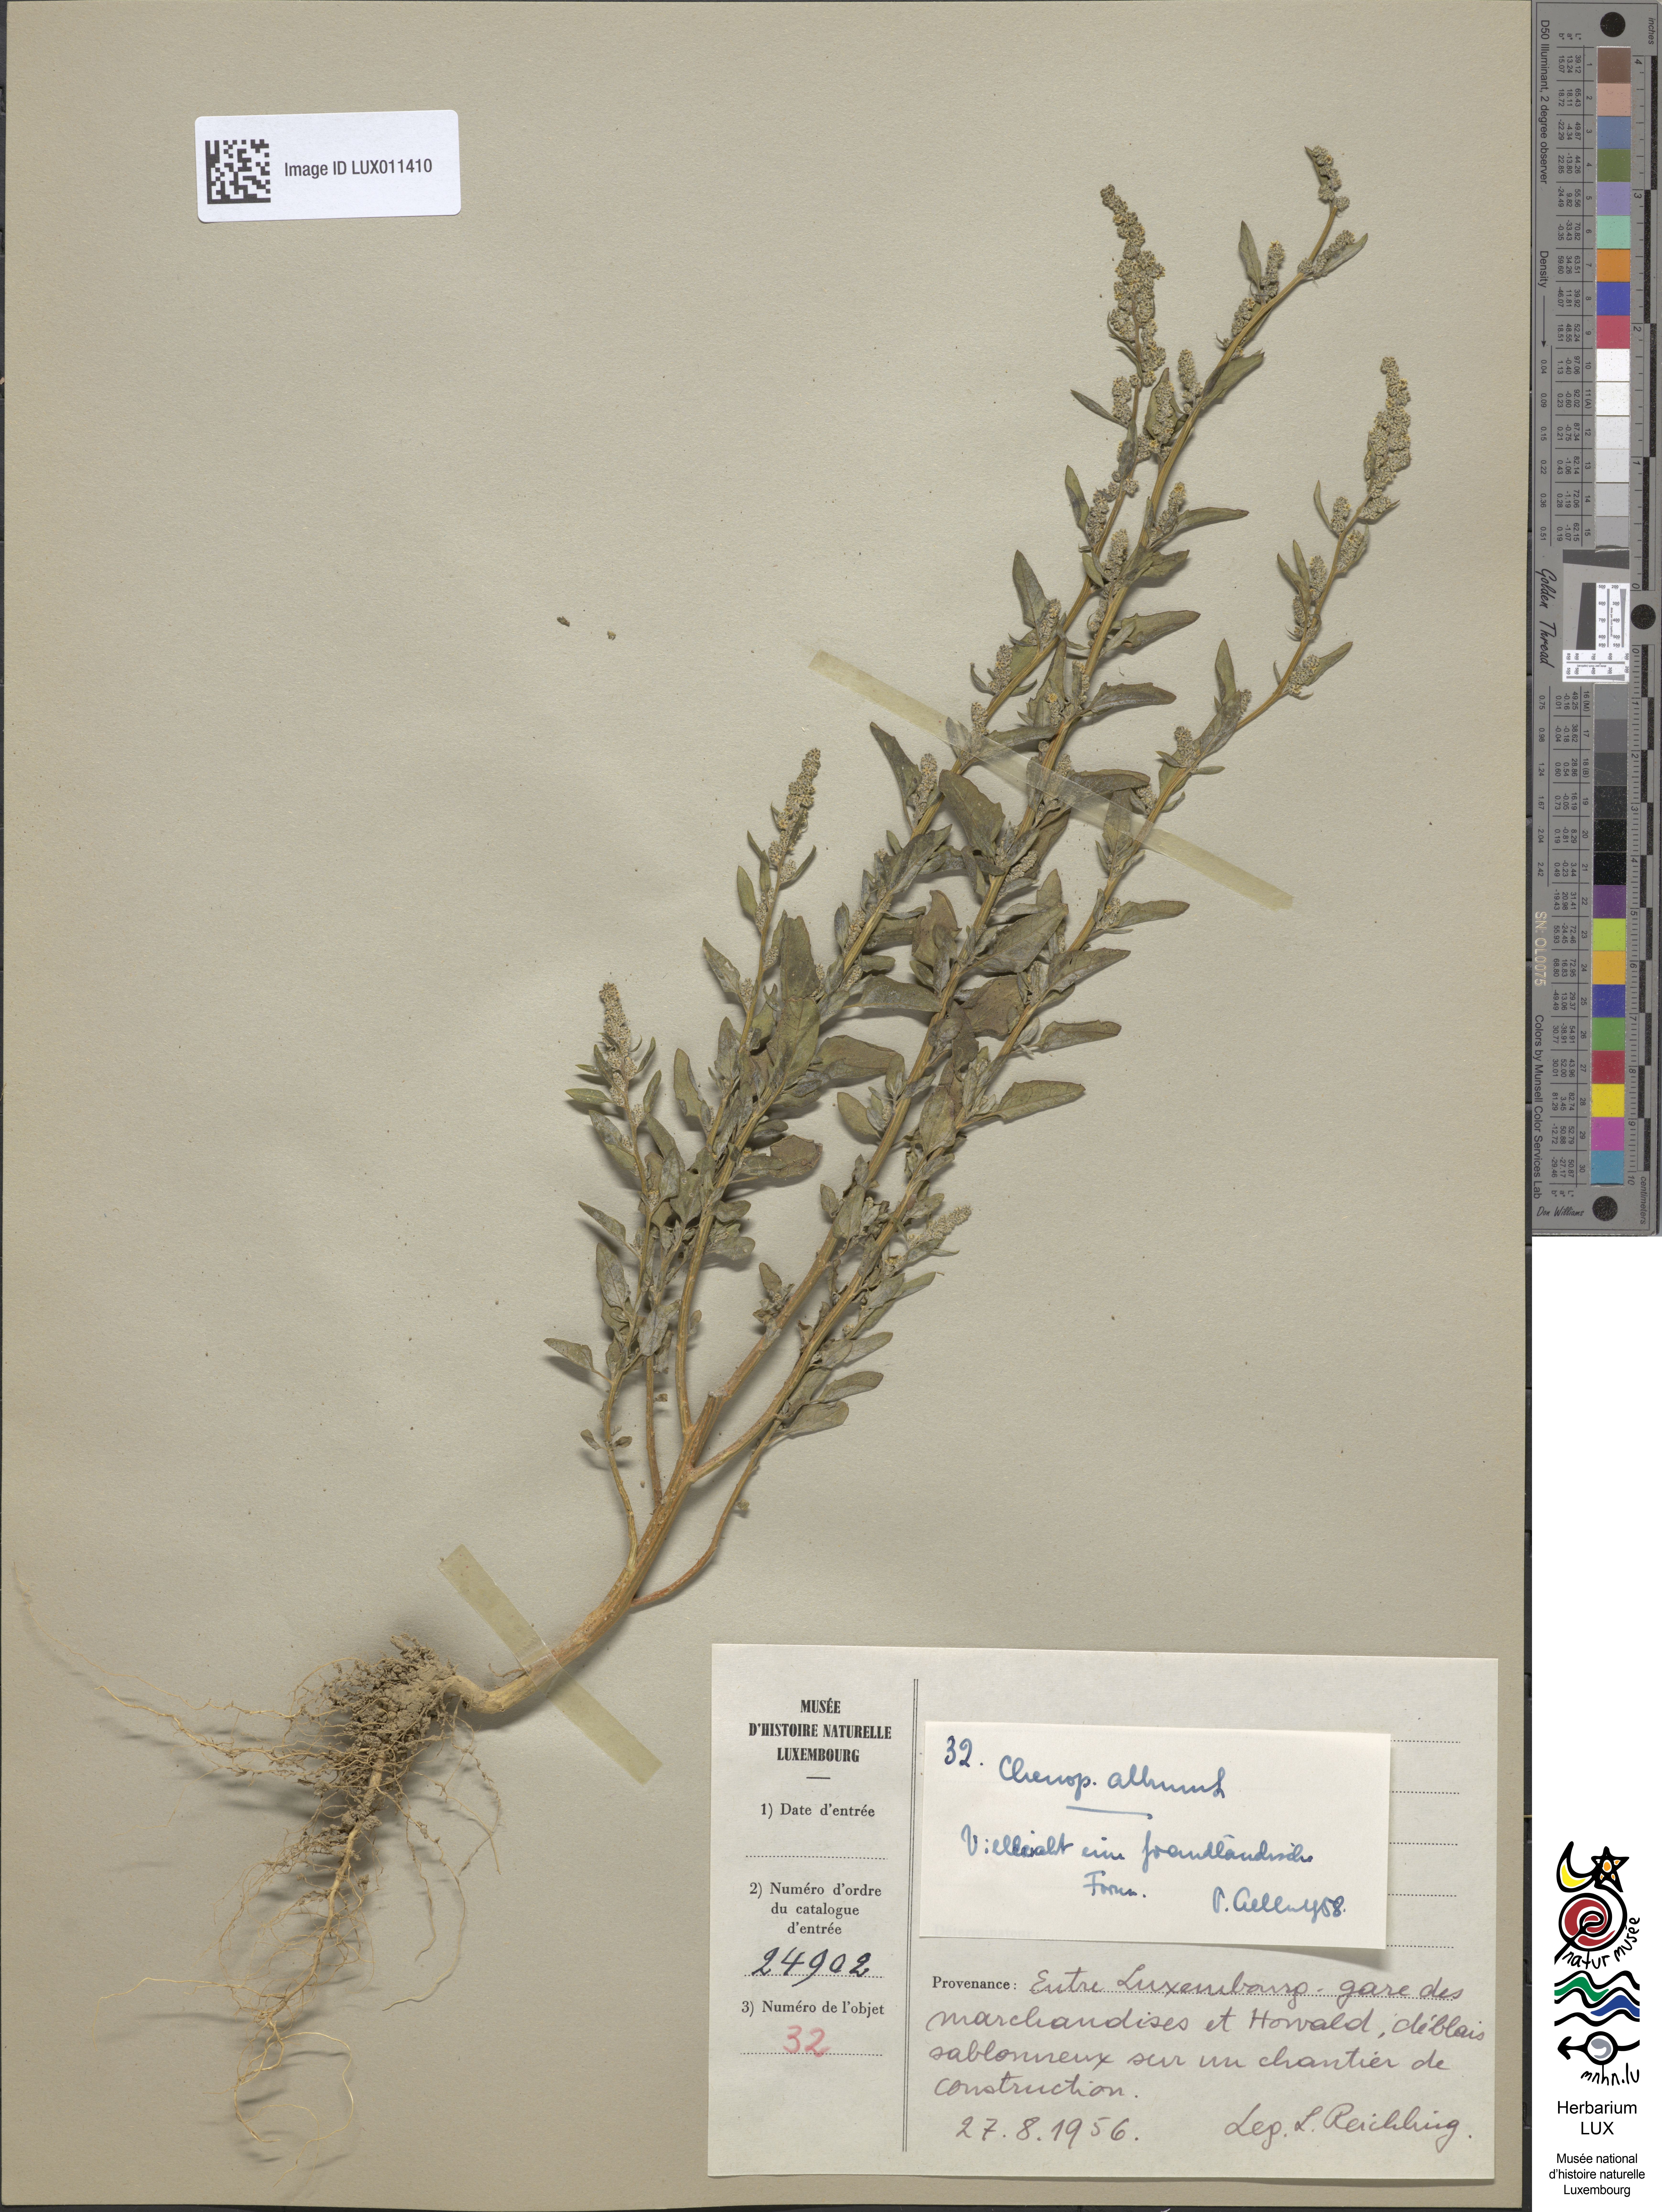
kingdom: Plantae
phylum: Tracheophyta
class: Magnoliopsida
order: Caryophyllales
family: Amaranthaceae
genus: Chenopodium
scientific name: Chenopodium album
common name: Fat-hen
